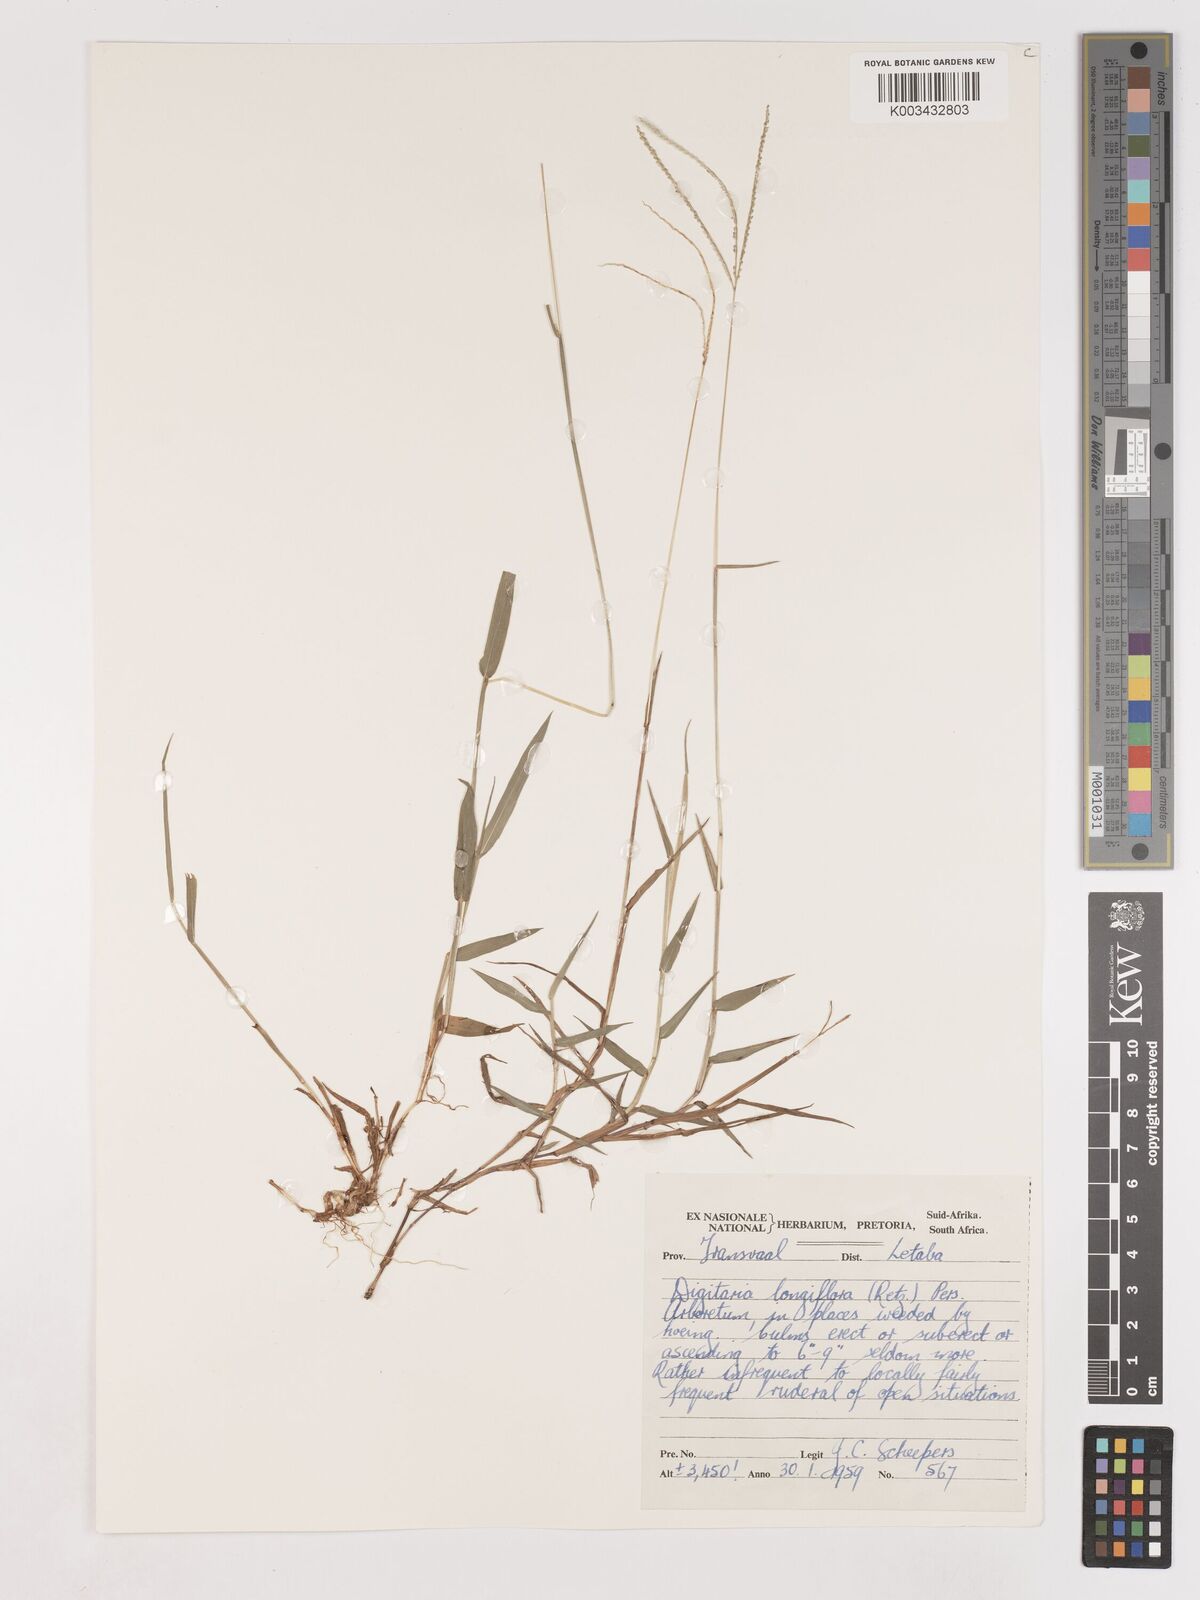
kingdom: Plantae
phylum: Tracheophyta
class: Liliopsida
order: Poales
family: Poaceae
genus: Digitaria
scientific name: Digitaria longiflora
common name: Wire crabgrass
